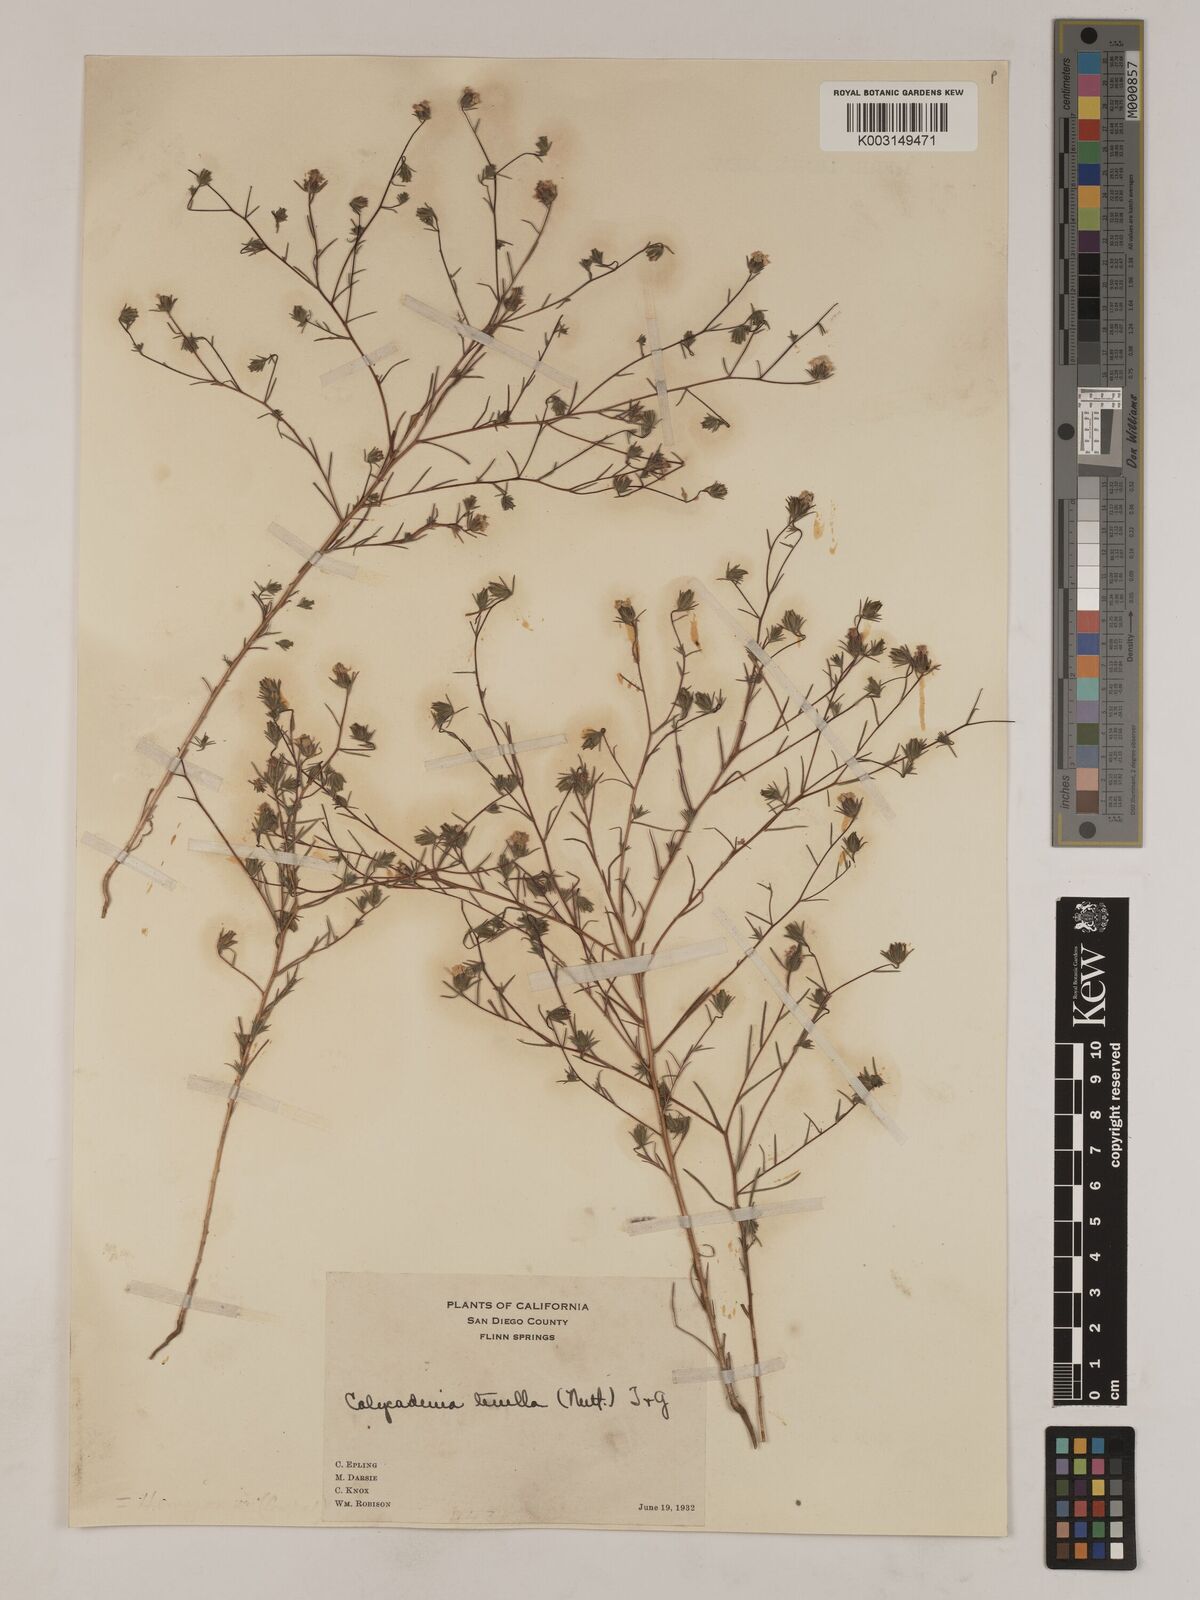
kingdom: Plantae
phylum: Tracheophyta
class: Magnoliopsida
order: Asterales
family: Asteraceae
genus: Osmadenia
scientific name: Osmadenia tenella
